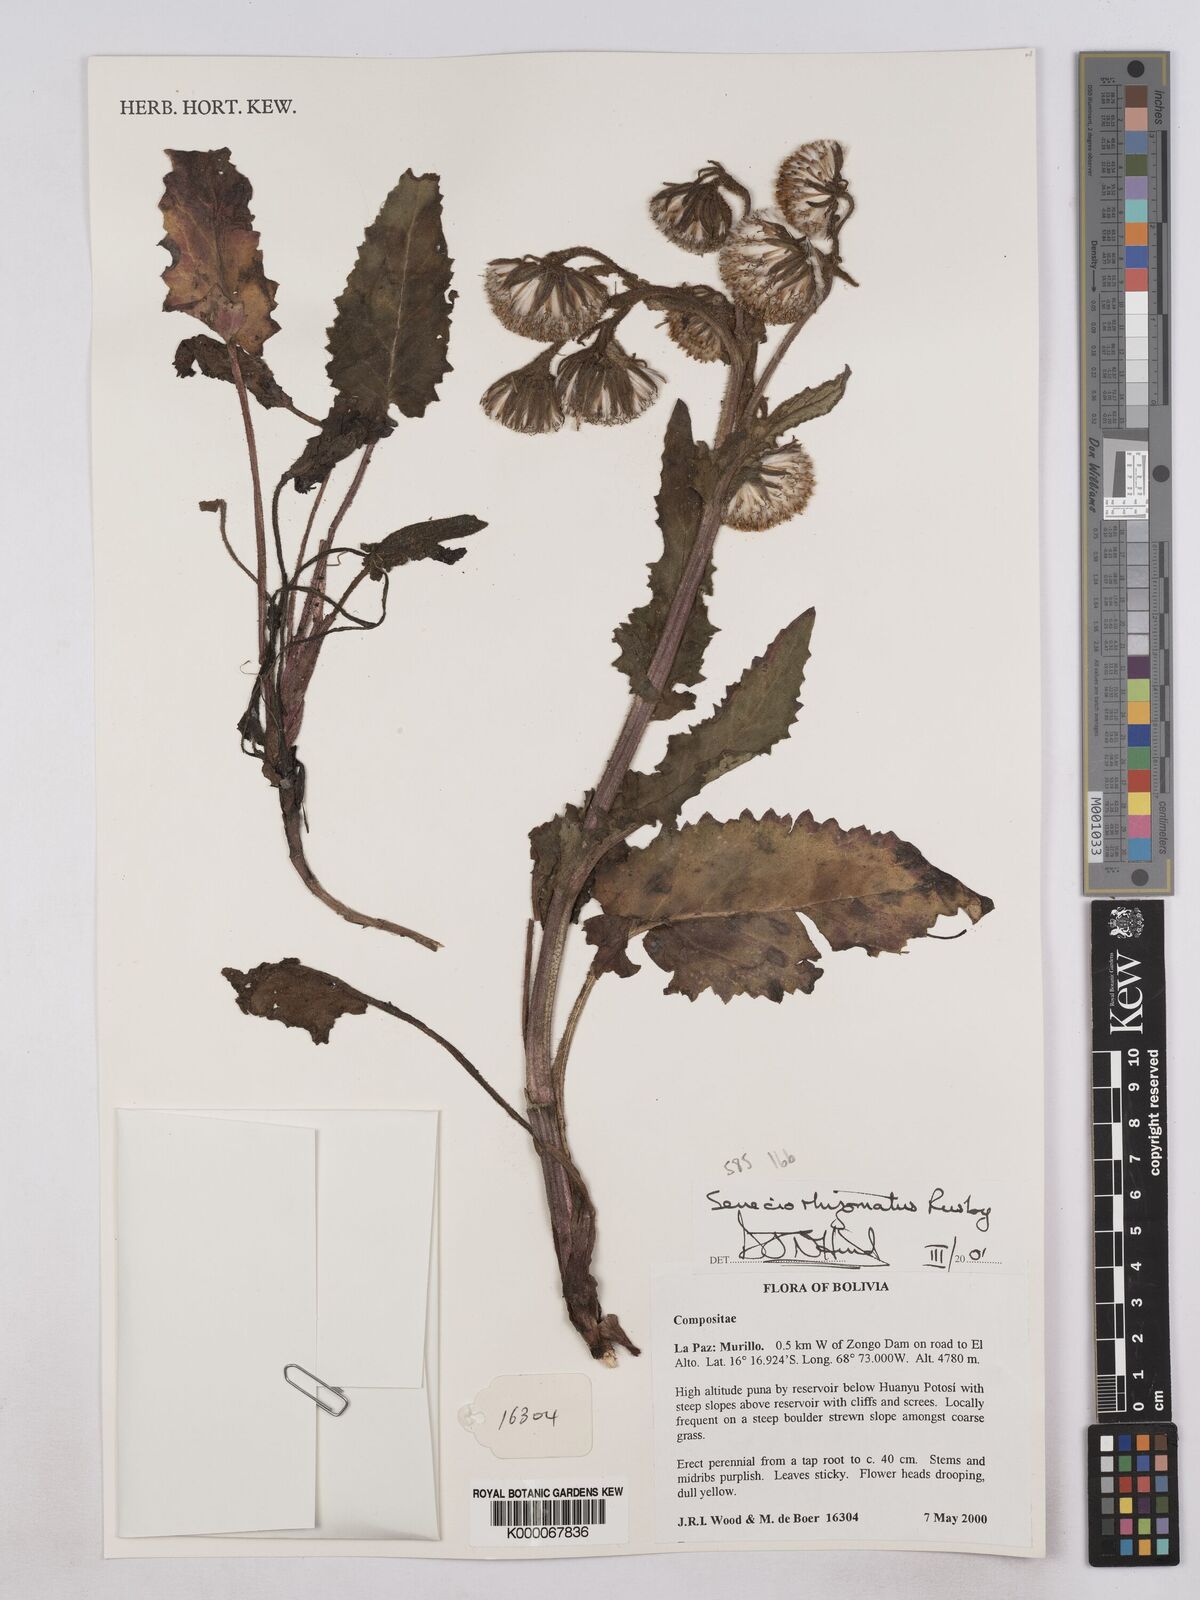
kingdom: Plantae
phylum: Tracheophyta
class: Magnoliopsida
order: Asterales
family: Asteraceae
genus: Senecio
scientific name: Senecio rhizomatus
